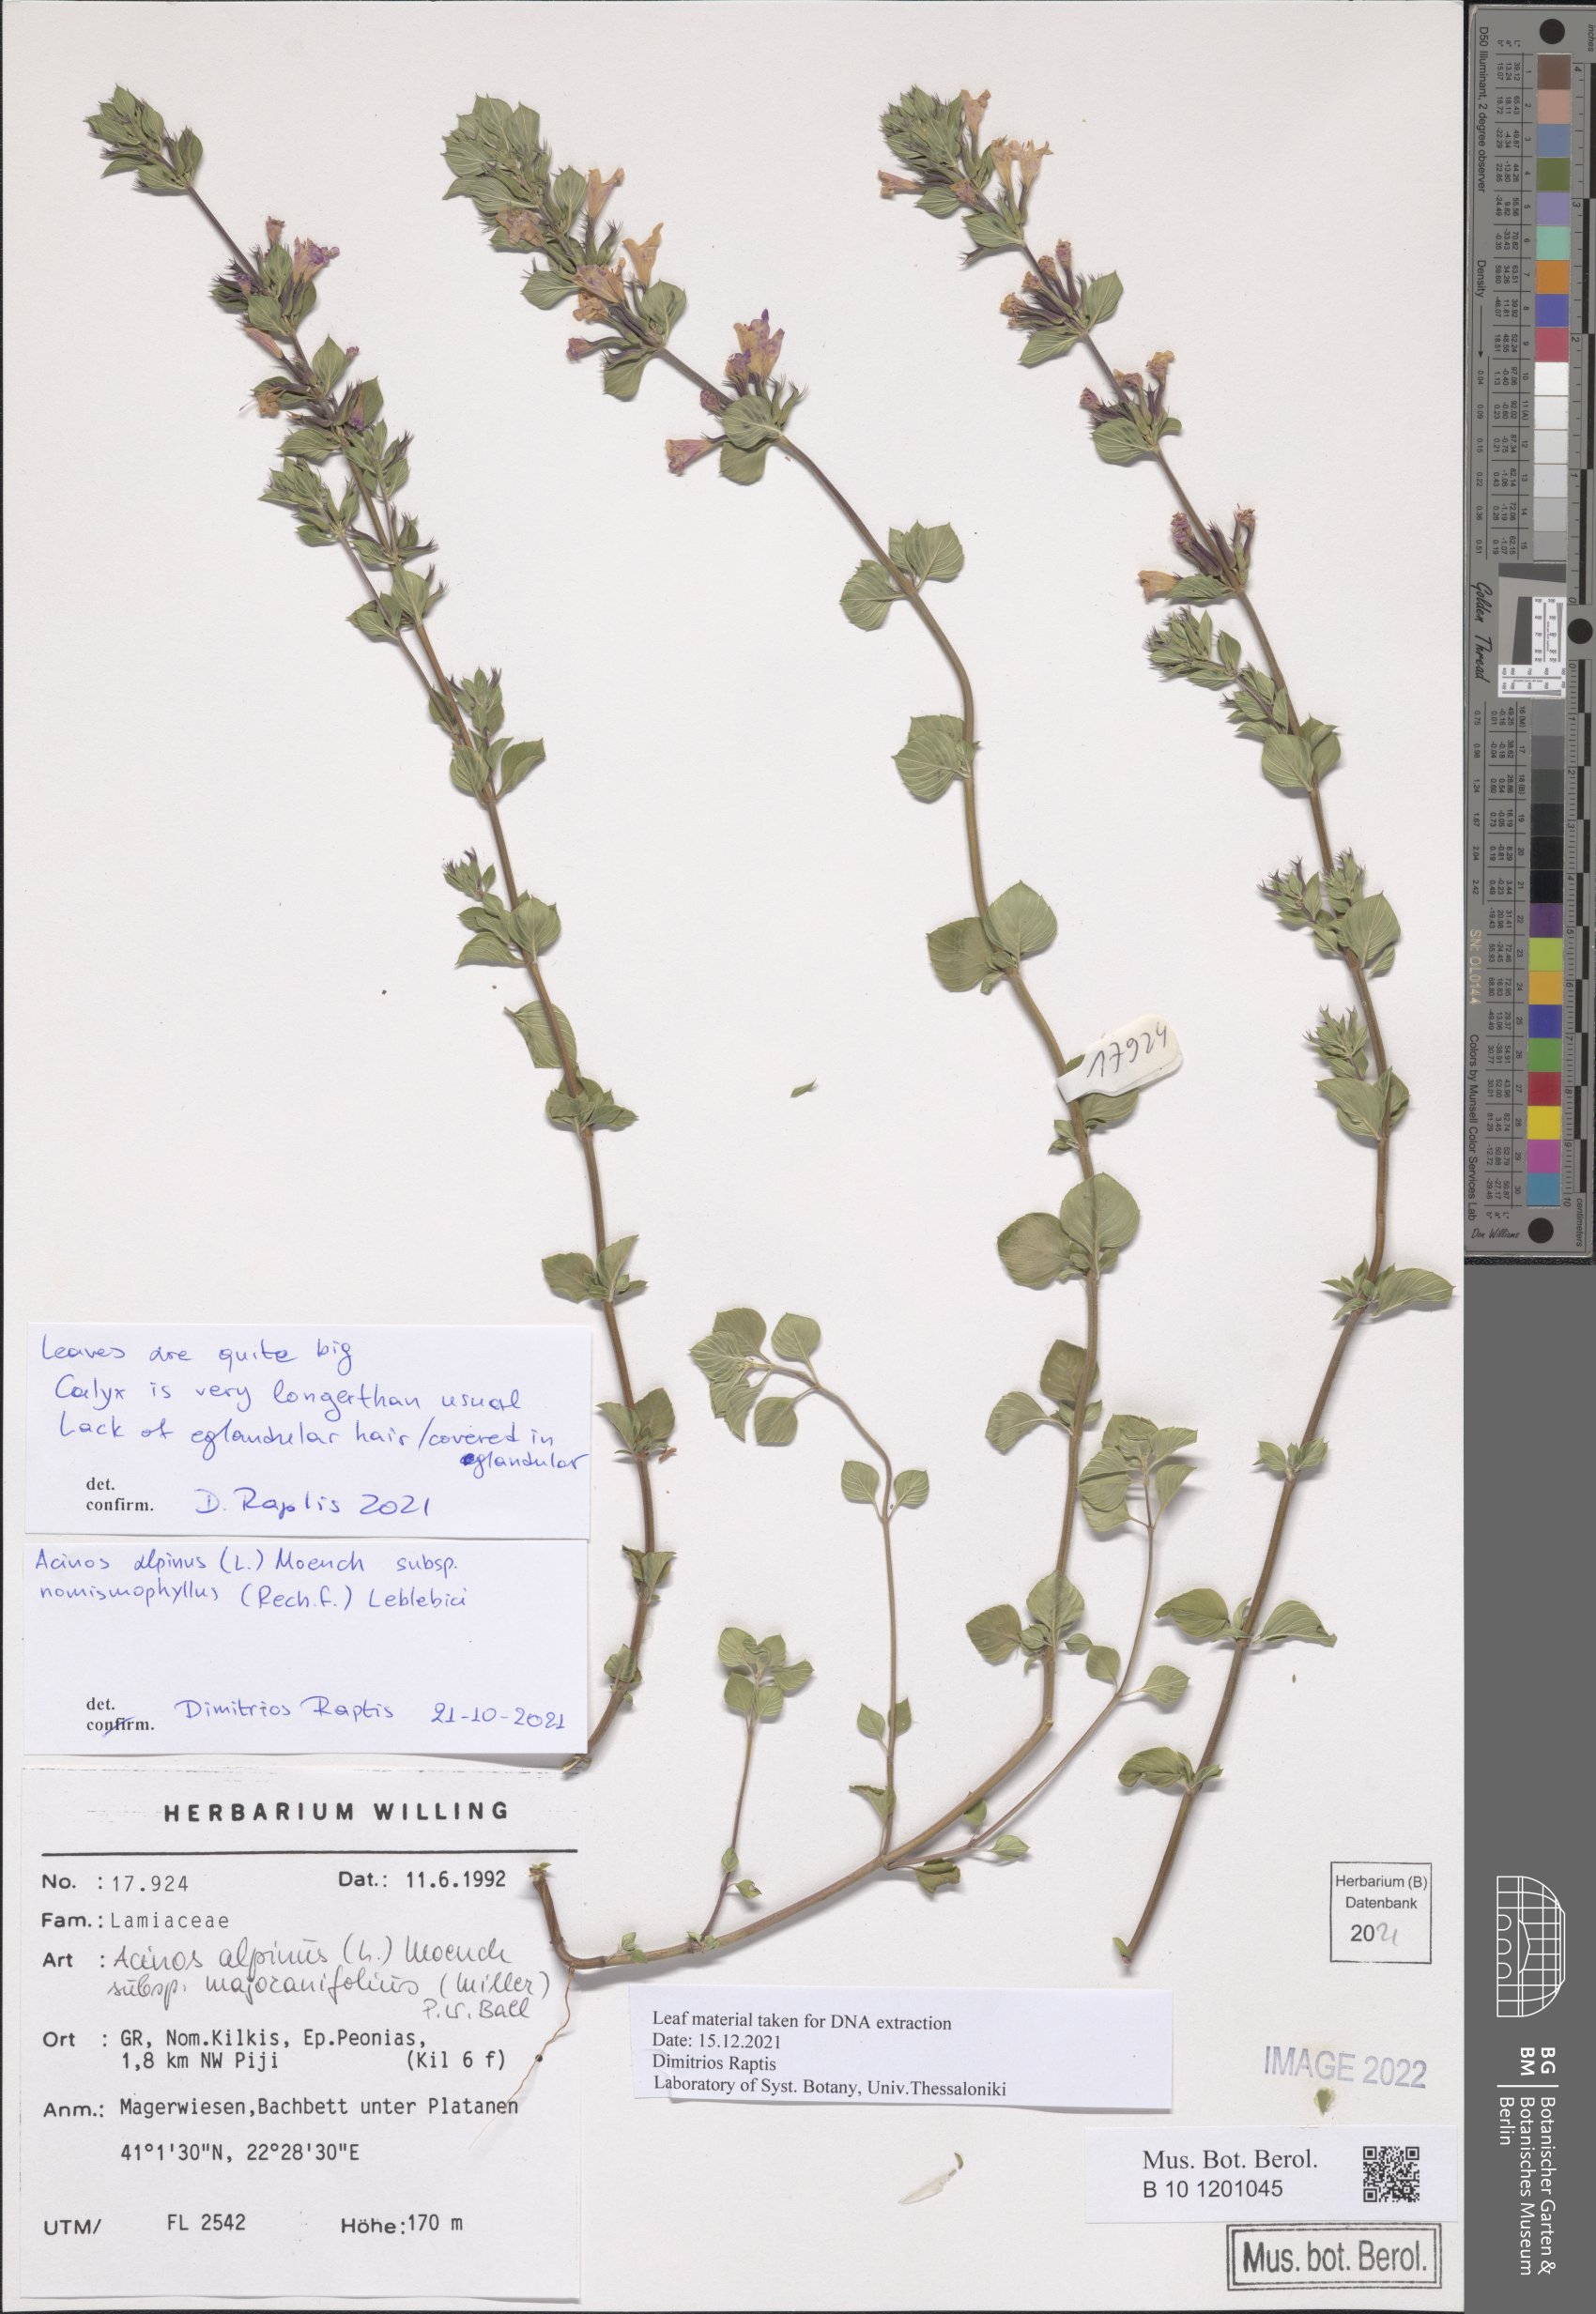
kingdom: Plantae
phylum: Tracheophyta
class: Magnoliopsida
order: Lamiales
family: Lamiaceae
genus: Clinopodium
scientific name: Clinopodium alpinum
